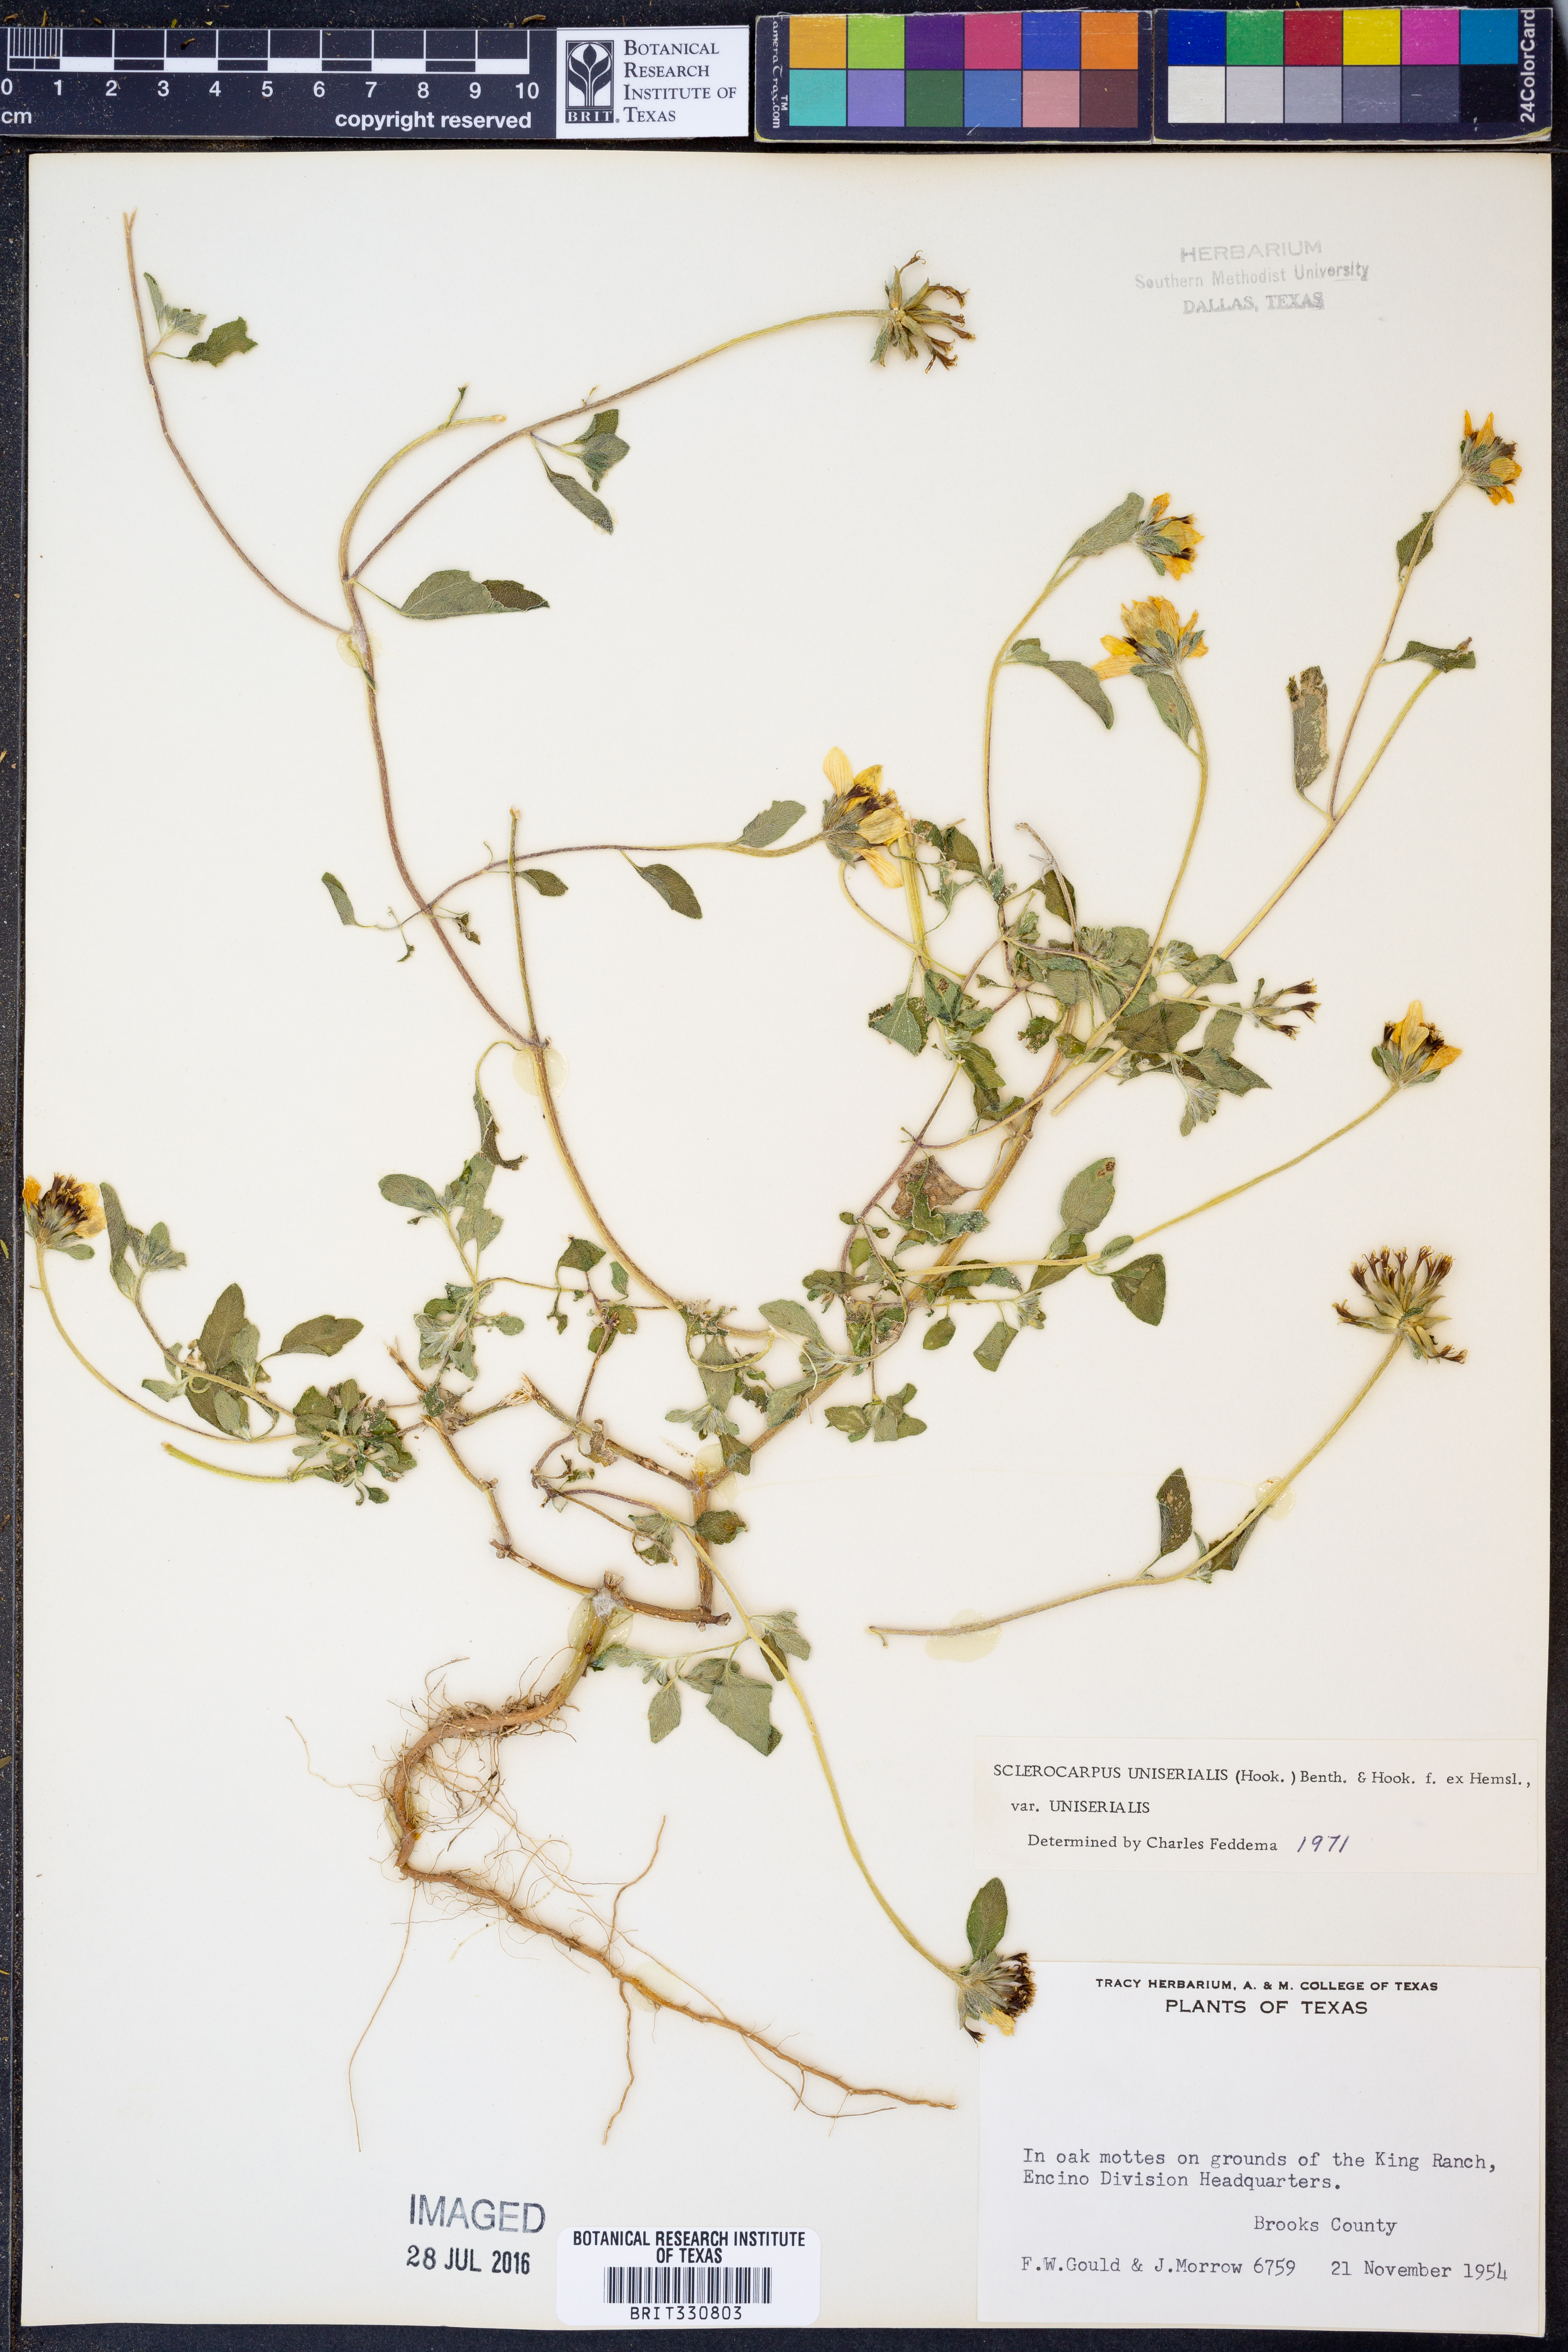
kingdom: Plantae
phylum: Tracheophyta
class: Magnoliopsida
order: Asterales
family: Asteraceae
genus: Sclerocarpus
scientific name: Sclerocarpus uniserialis
